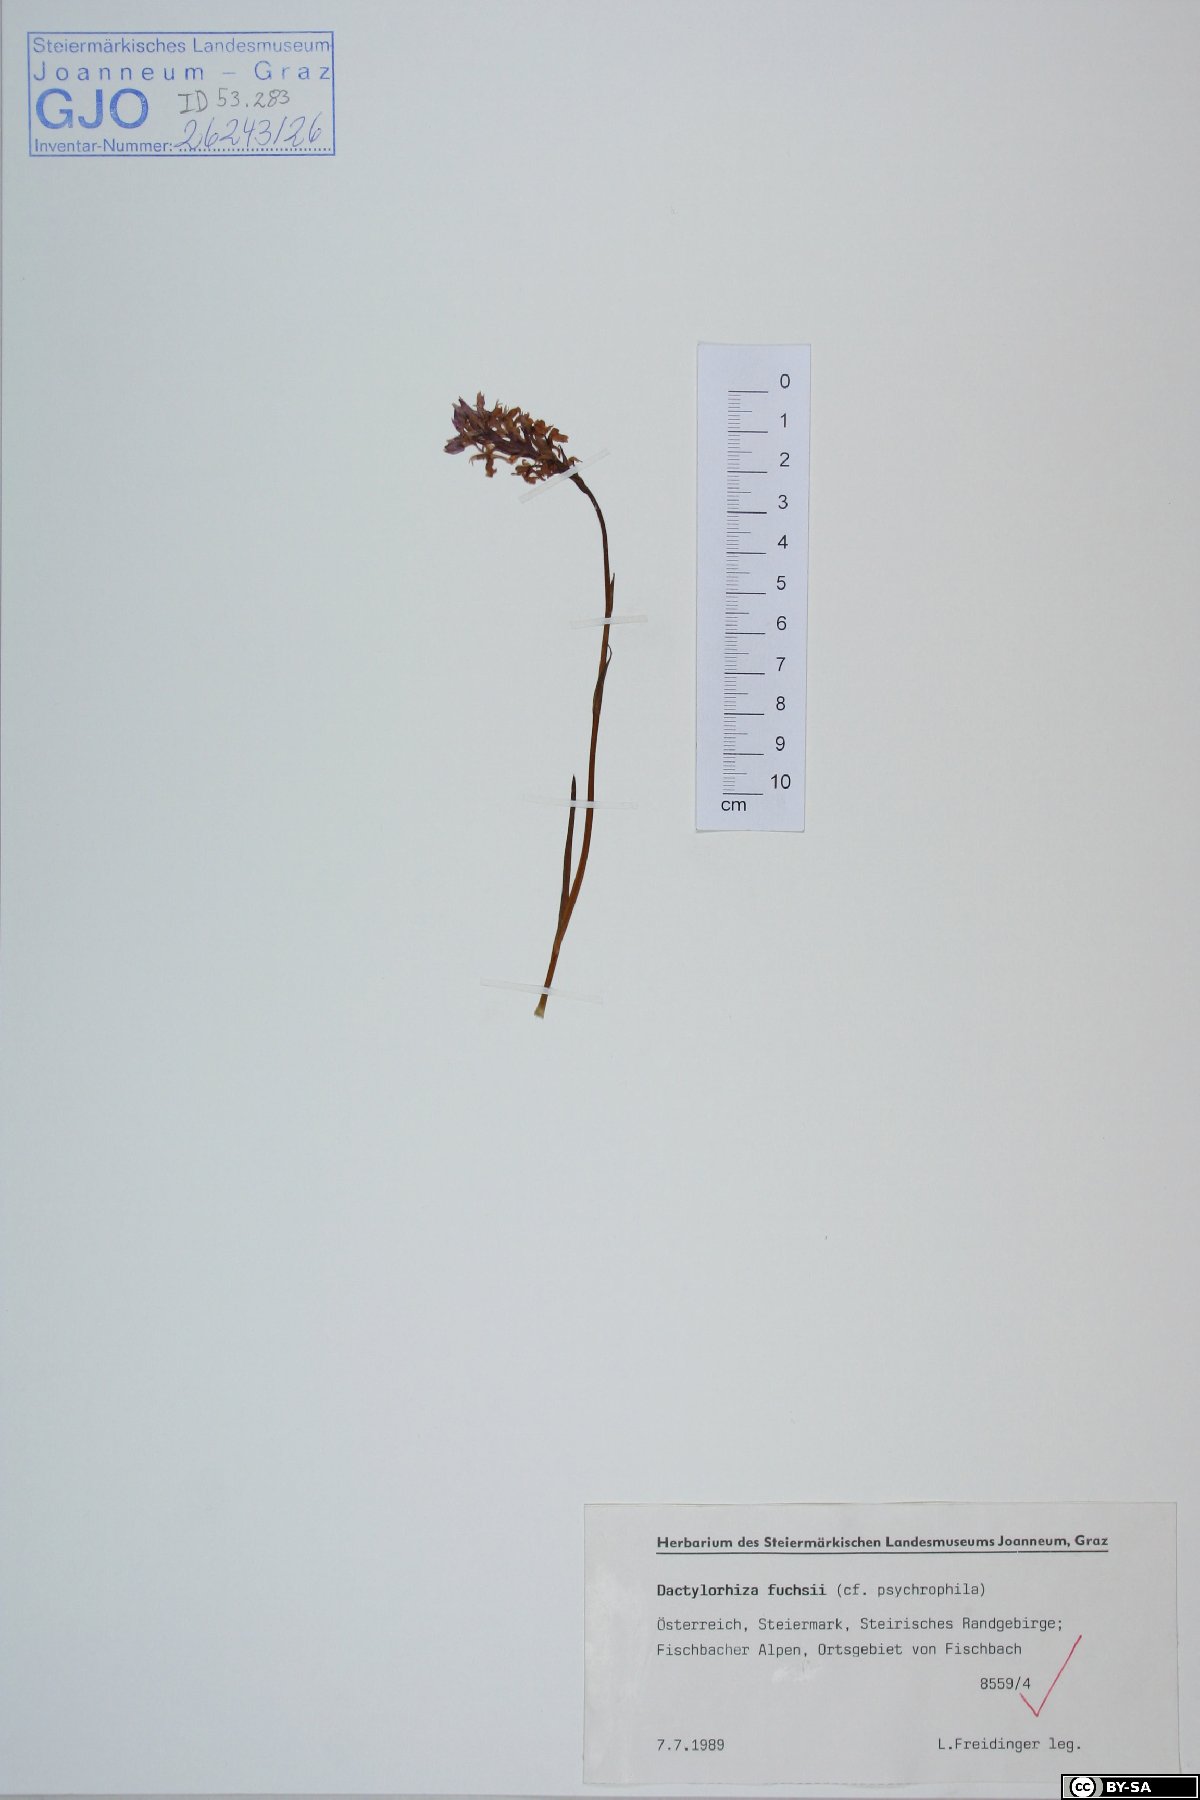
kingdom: Plantae
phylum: Tracheophyta
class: Liliopsida
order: Asparagales
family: Orchidaceae
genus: Dactylorhiza
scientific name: Dactylorhiza maculata
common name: Heath spotted-orchid
